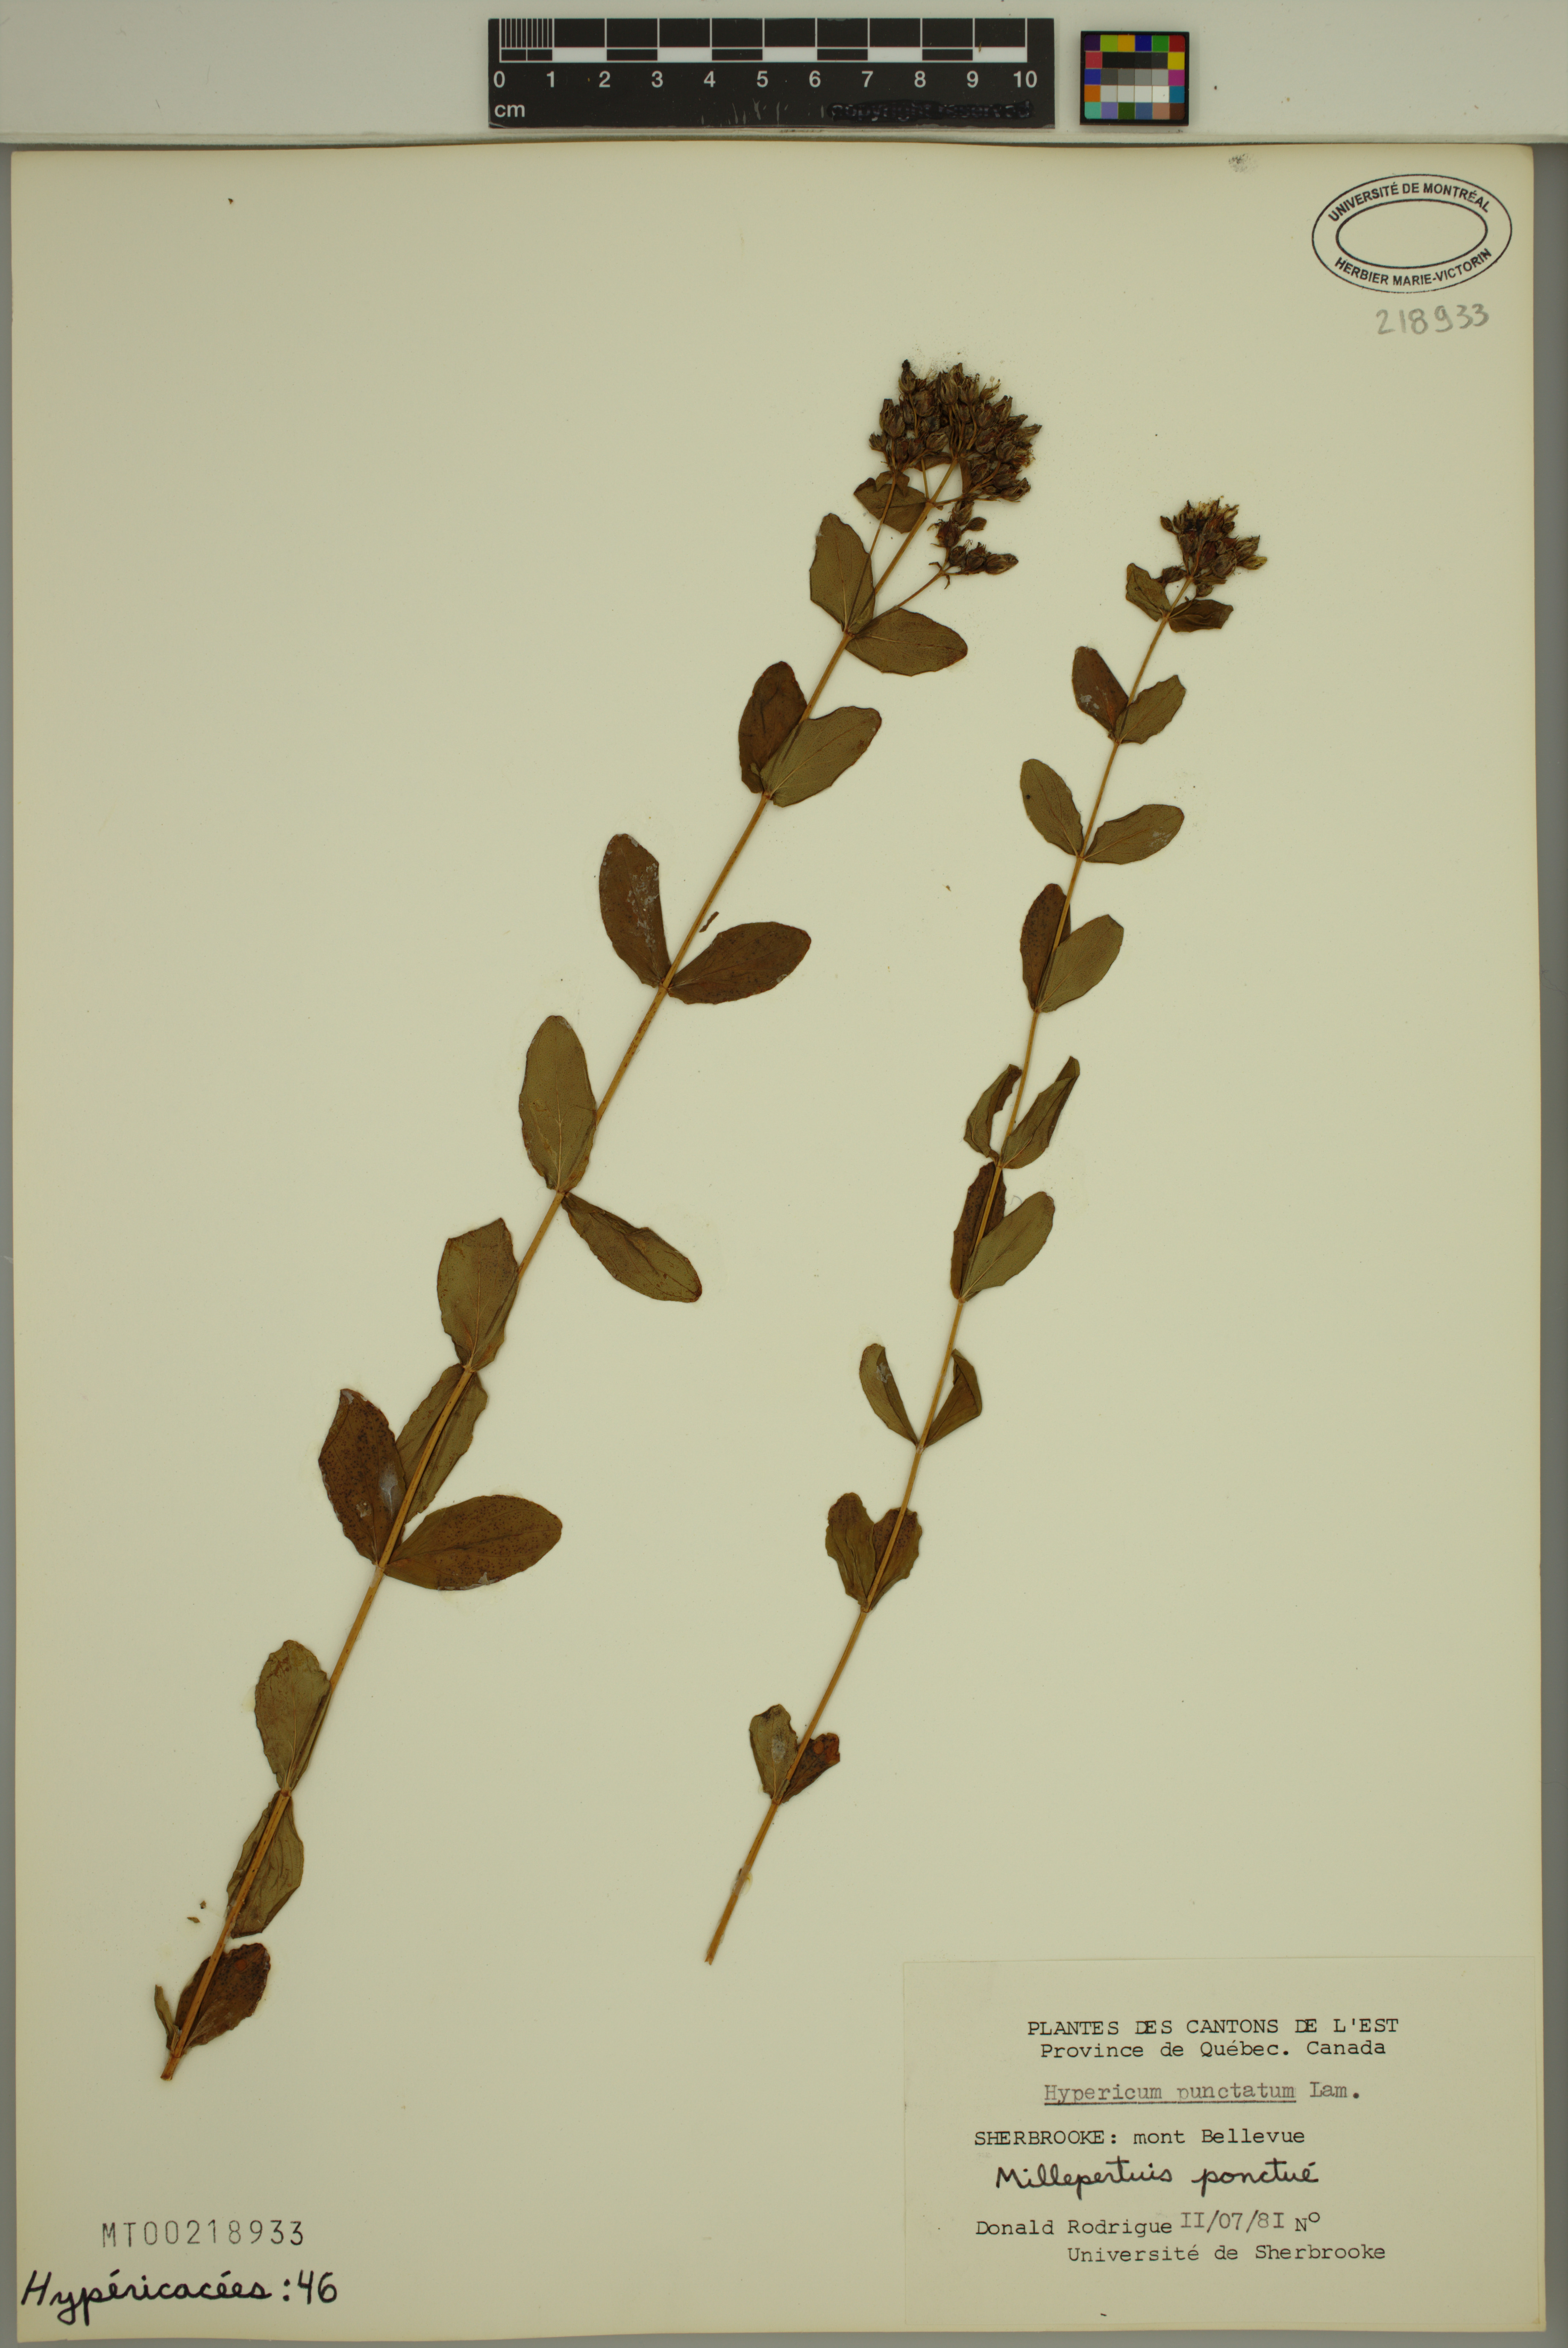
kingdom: Plantae
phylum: Tracheophyta
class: Magnoliopsida
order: Malpighiales
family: Hypericaceae
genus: Hypericum
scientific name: Hypericum punctatum
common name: Spotted st. john's-wort
